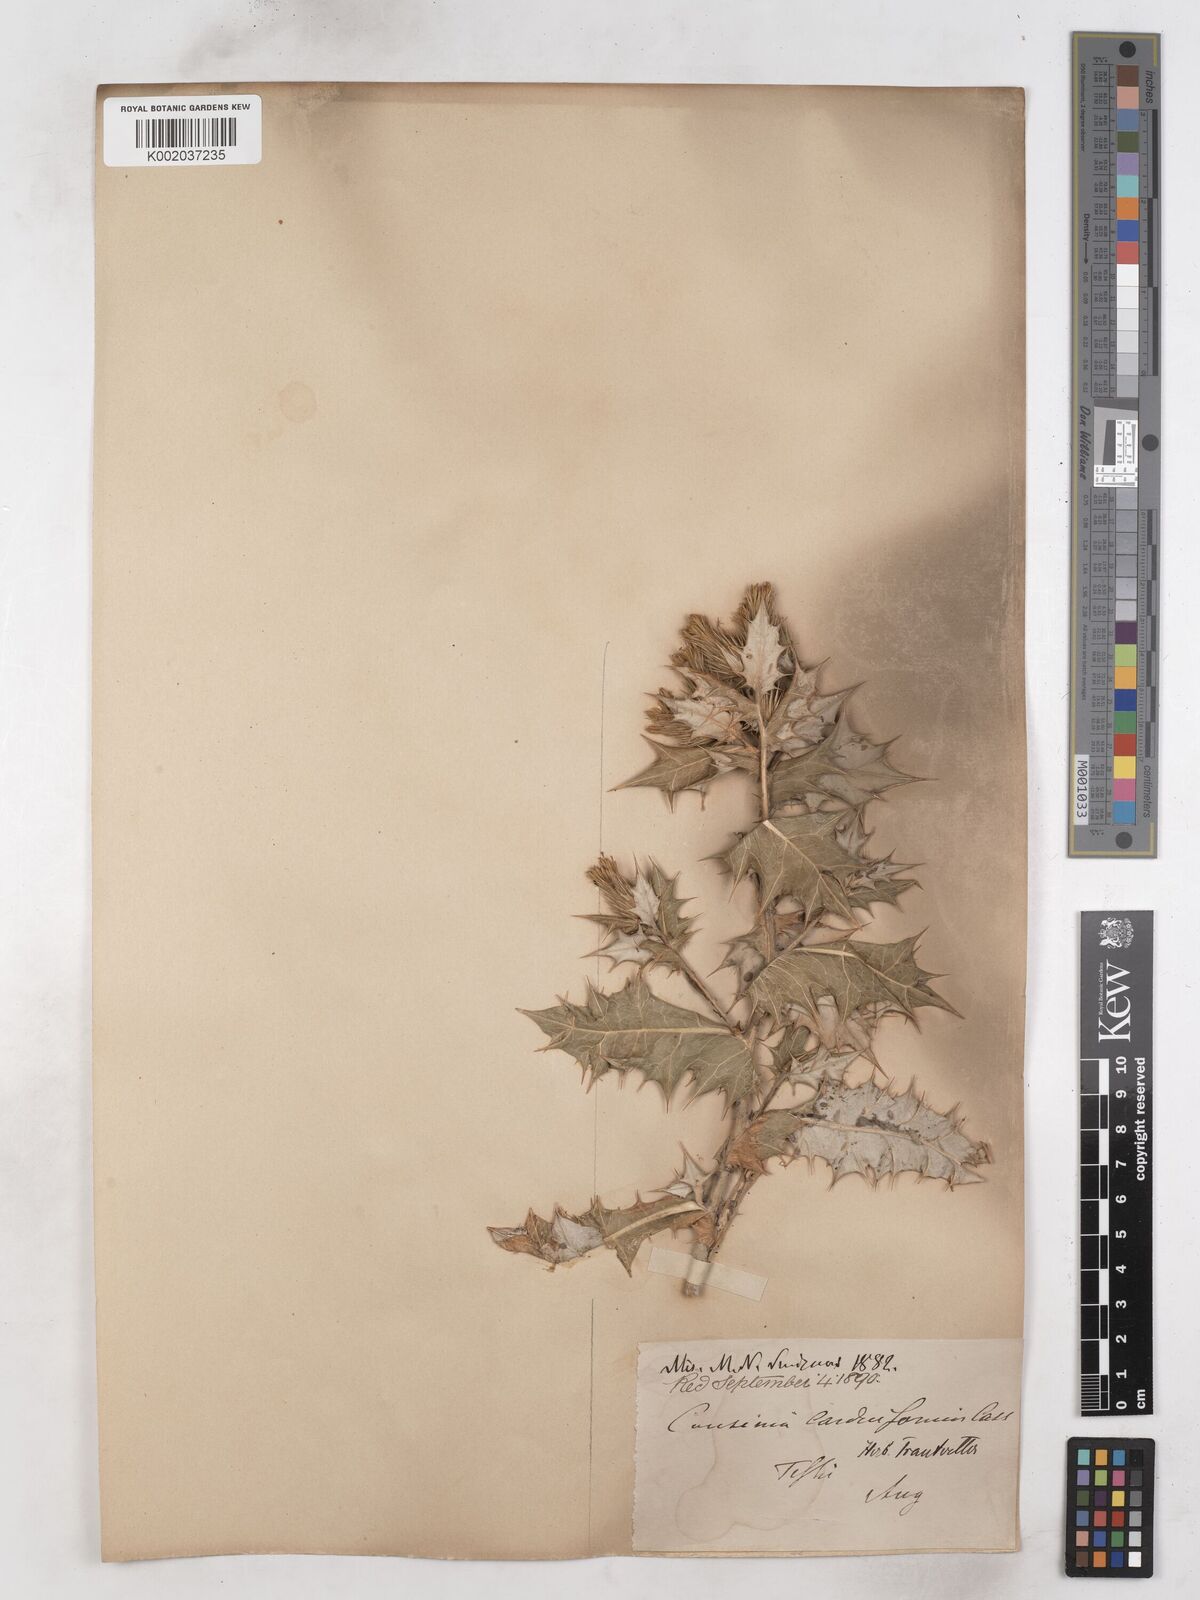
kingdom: Plantae
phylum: Tracheophyta
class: Magnoliopsida
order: Asterales
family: Asteraceae
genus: Cousinia
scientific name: Cousinia
